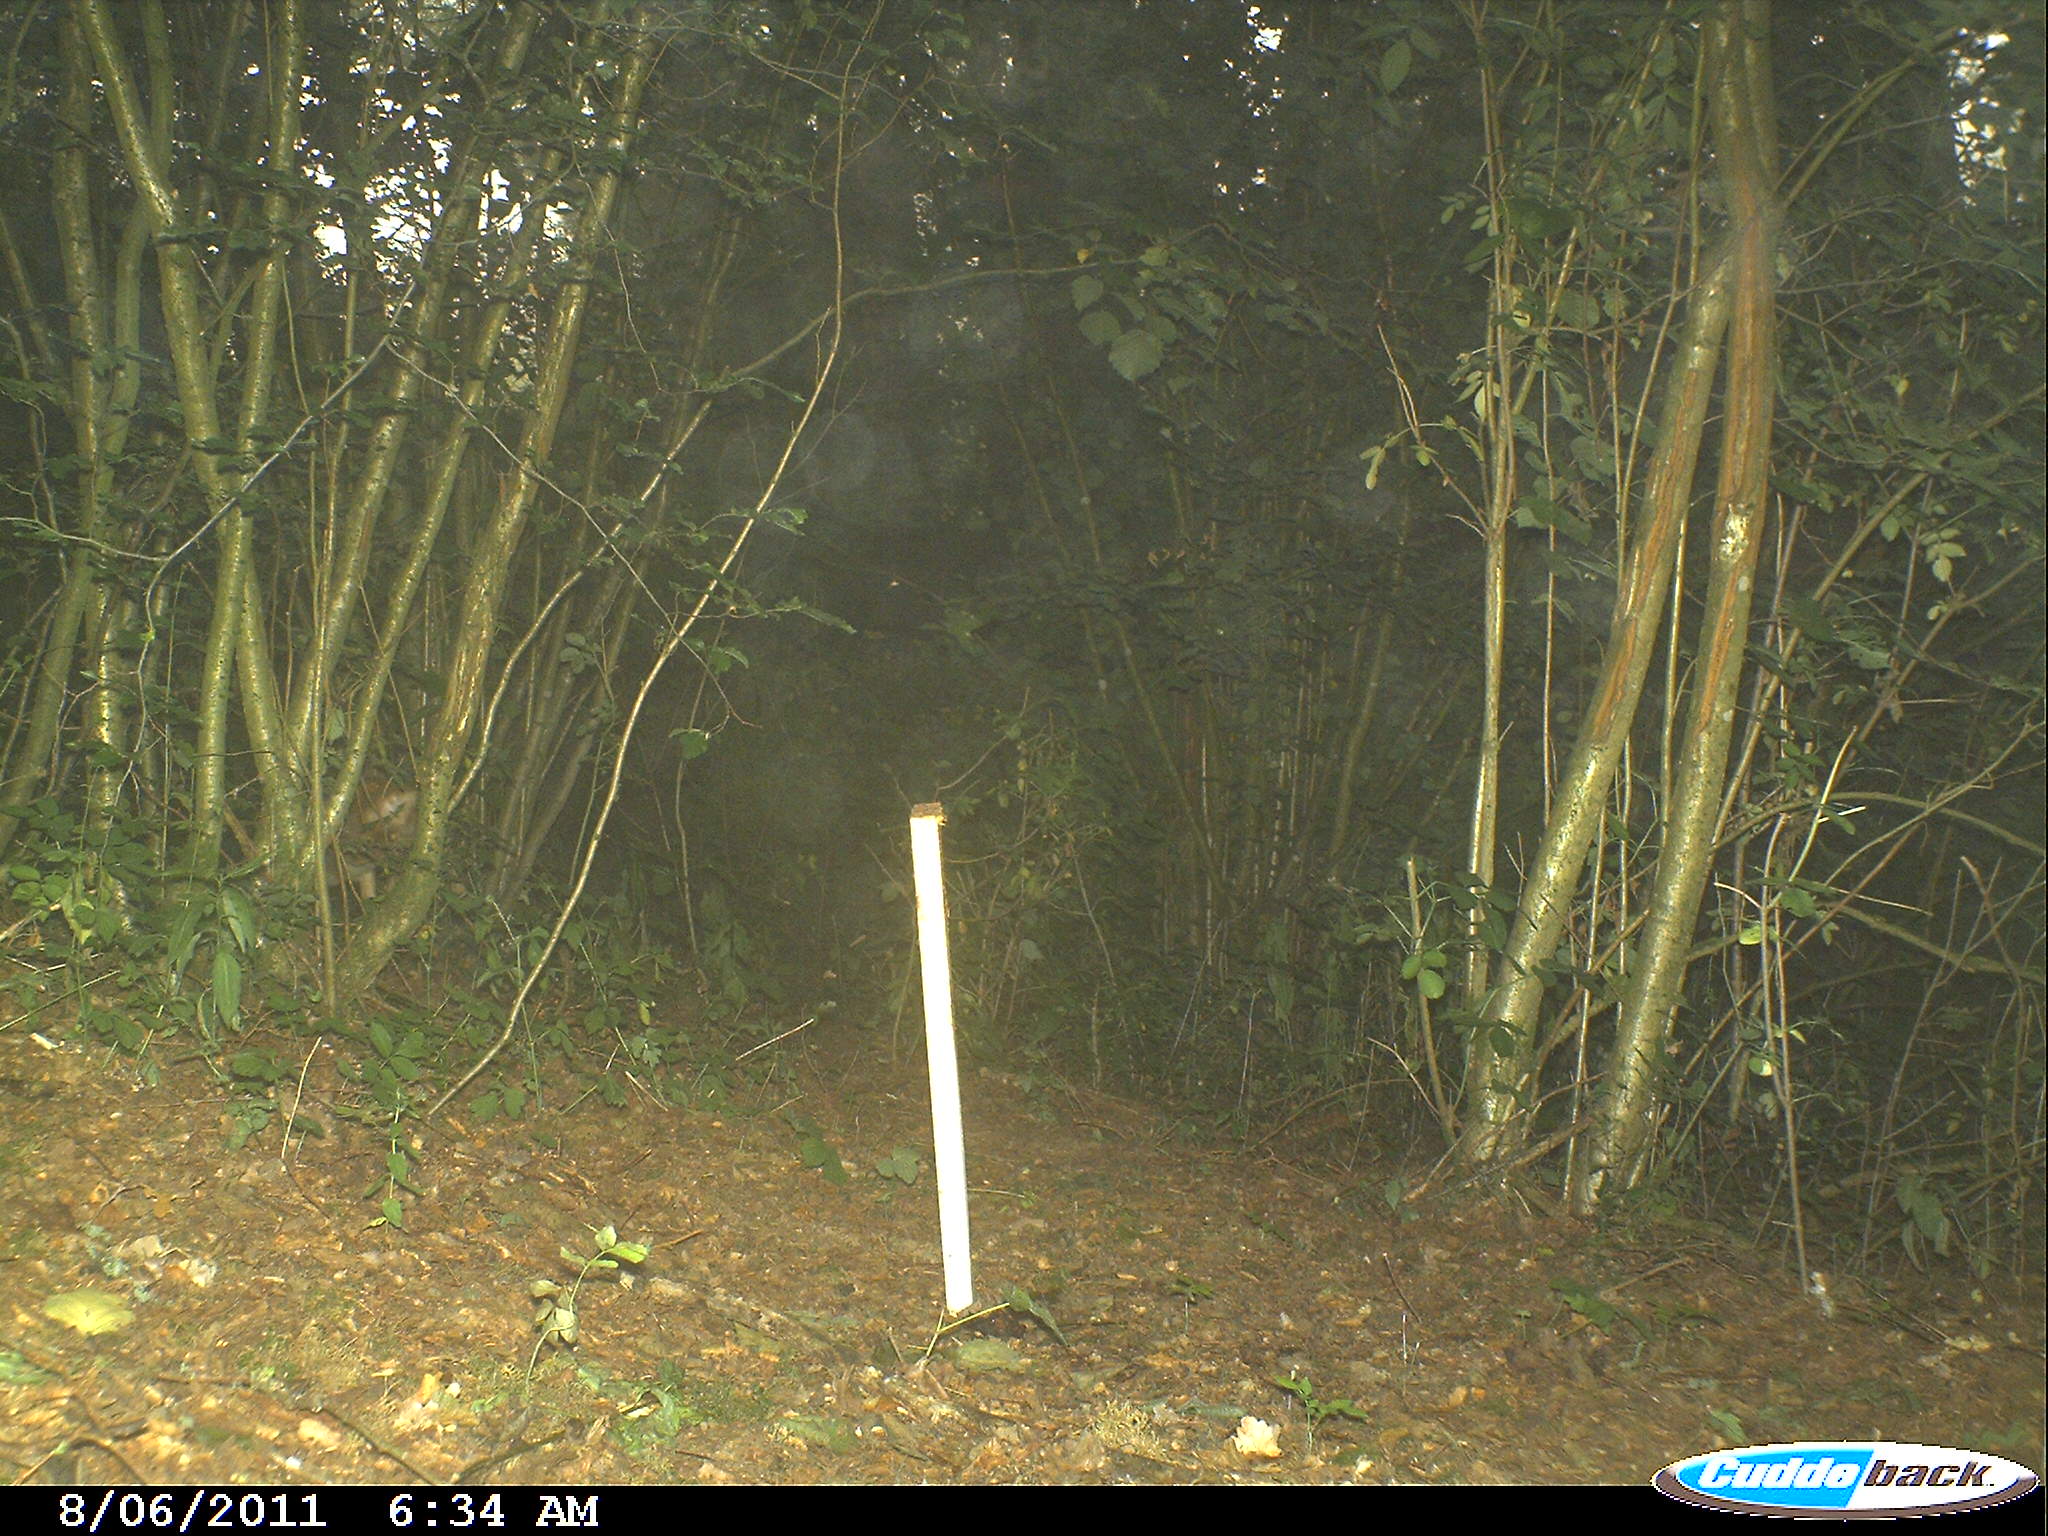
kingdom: Animalia
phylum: Chordata
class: Mammalia
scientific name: Mammalia
